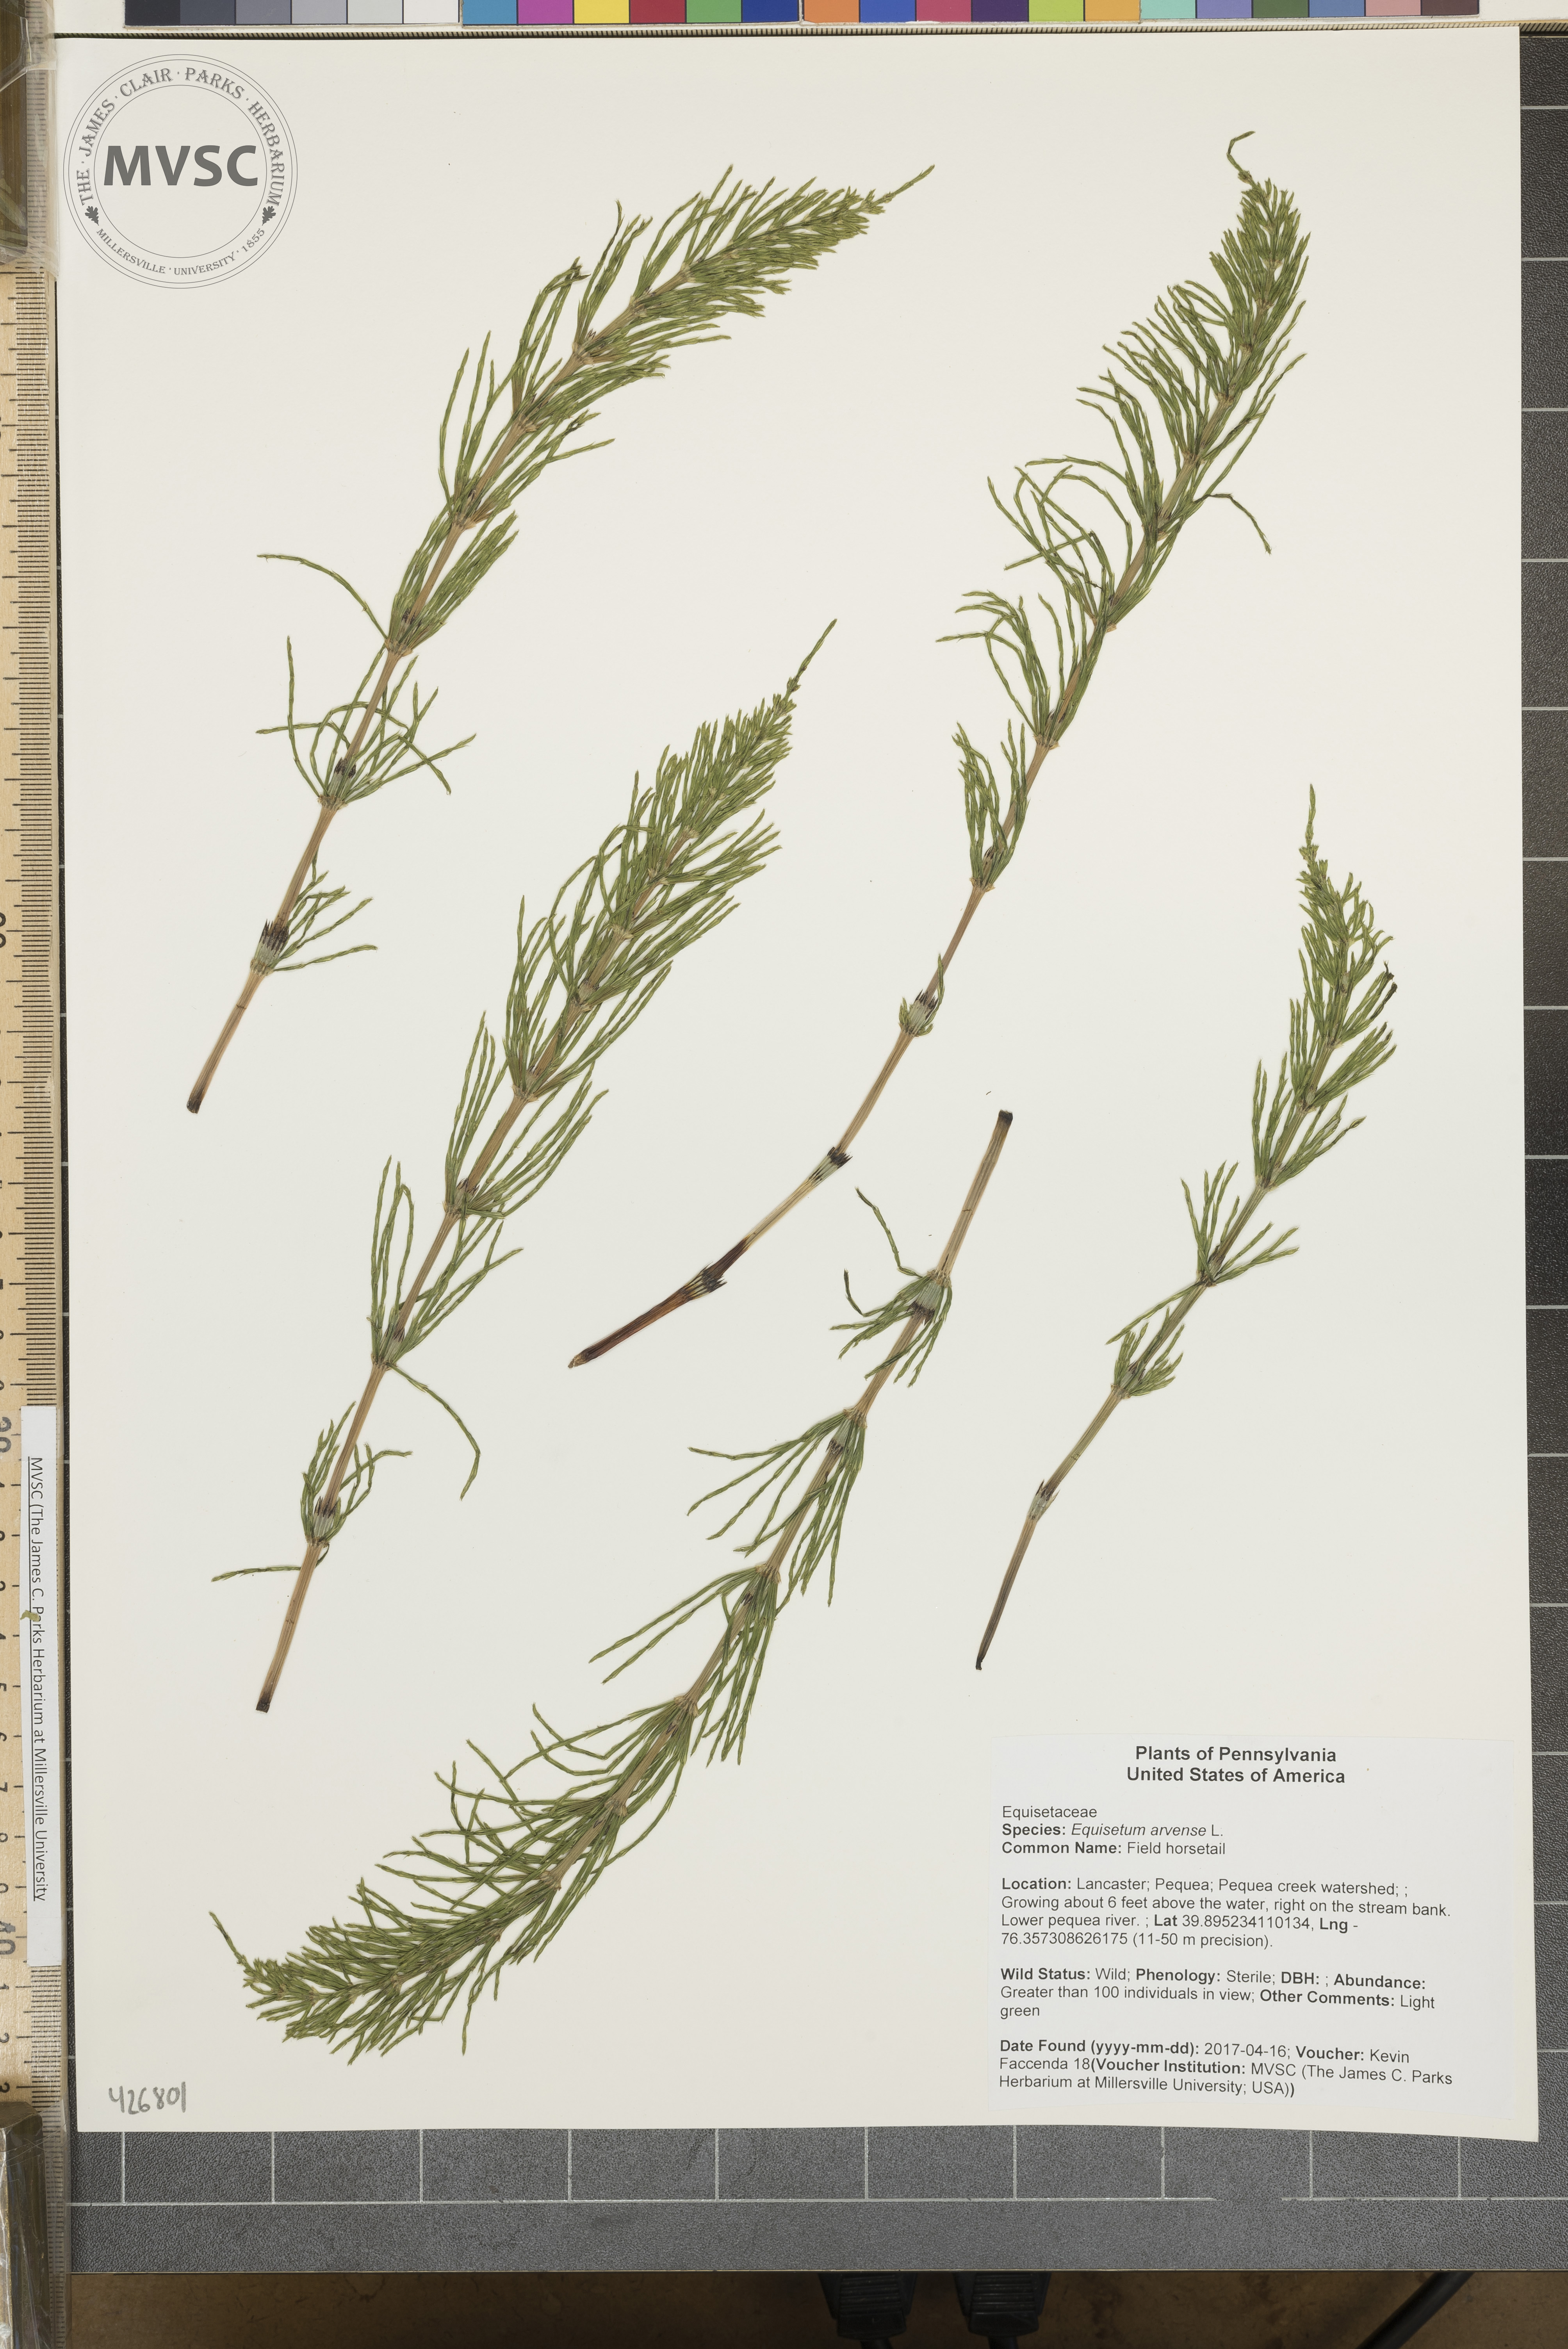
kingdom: Plantae
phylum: Tracheophyta
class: Polypodiopsida
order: Equisetales
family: Equisetaceae
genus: Equisetum
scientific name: Equisetum arvense
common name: Field horsetail
